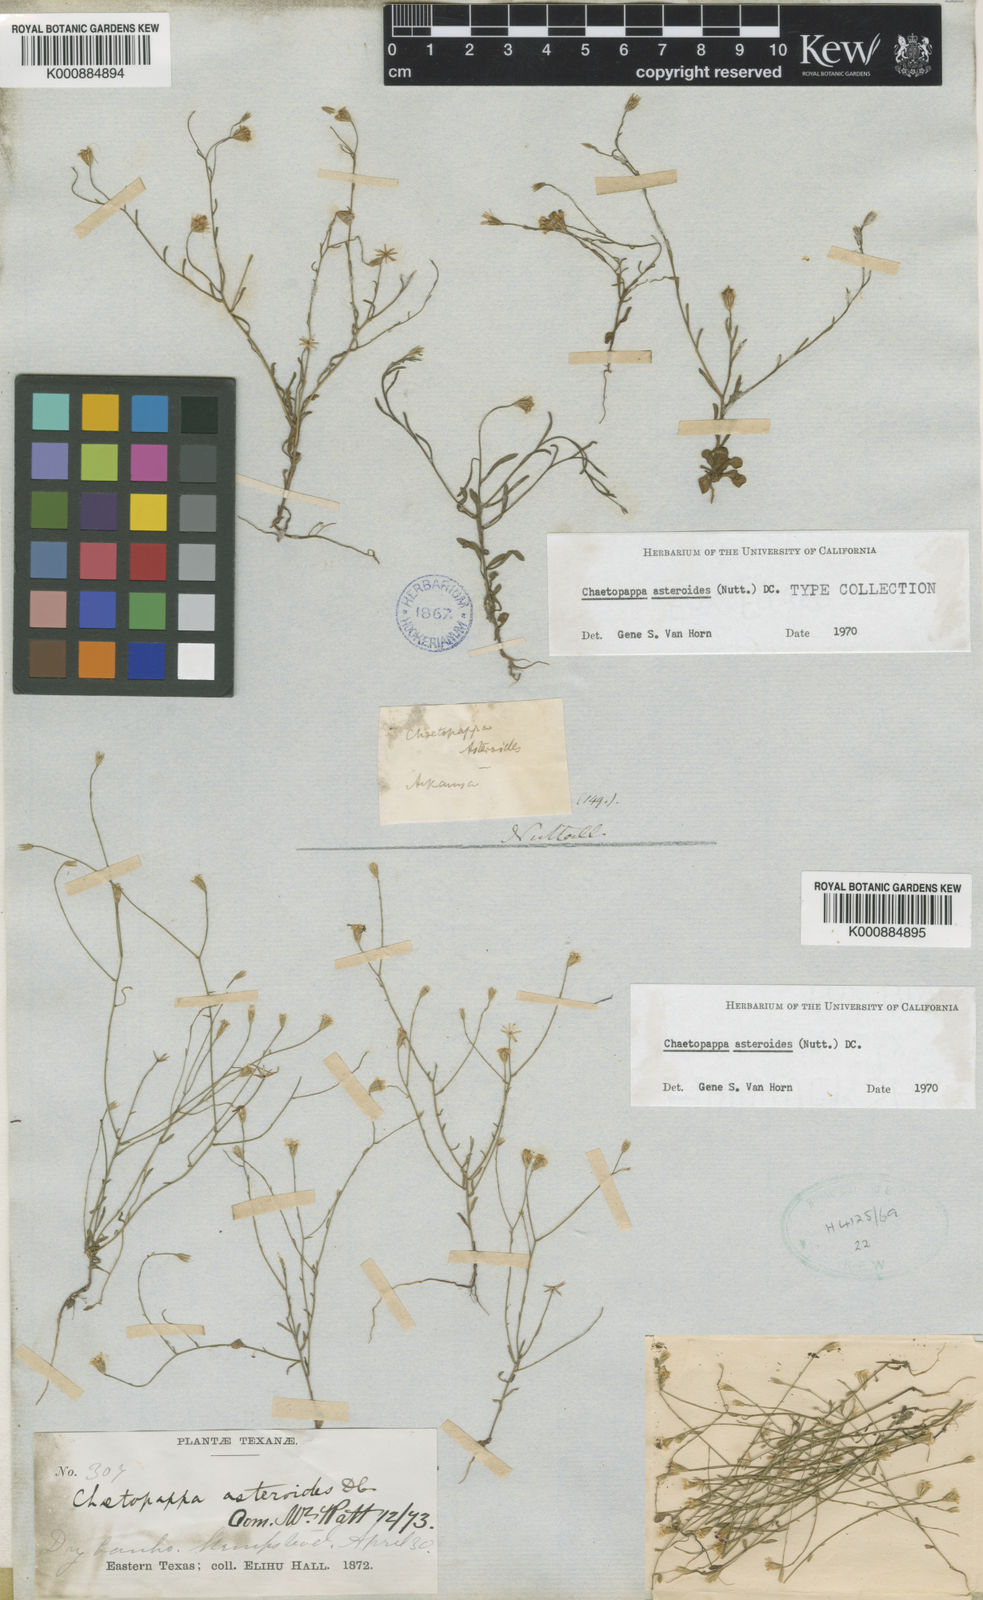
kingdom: Plantae
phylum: Tracheophyta
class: Magnoliopsida
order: Asterales
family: Asteraceae
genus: Chaetopappa
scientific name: Chaetopappa asteroides
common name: Tiny lazy daisy
